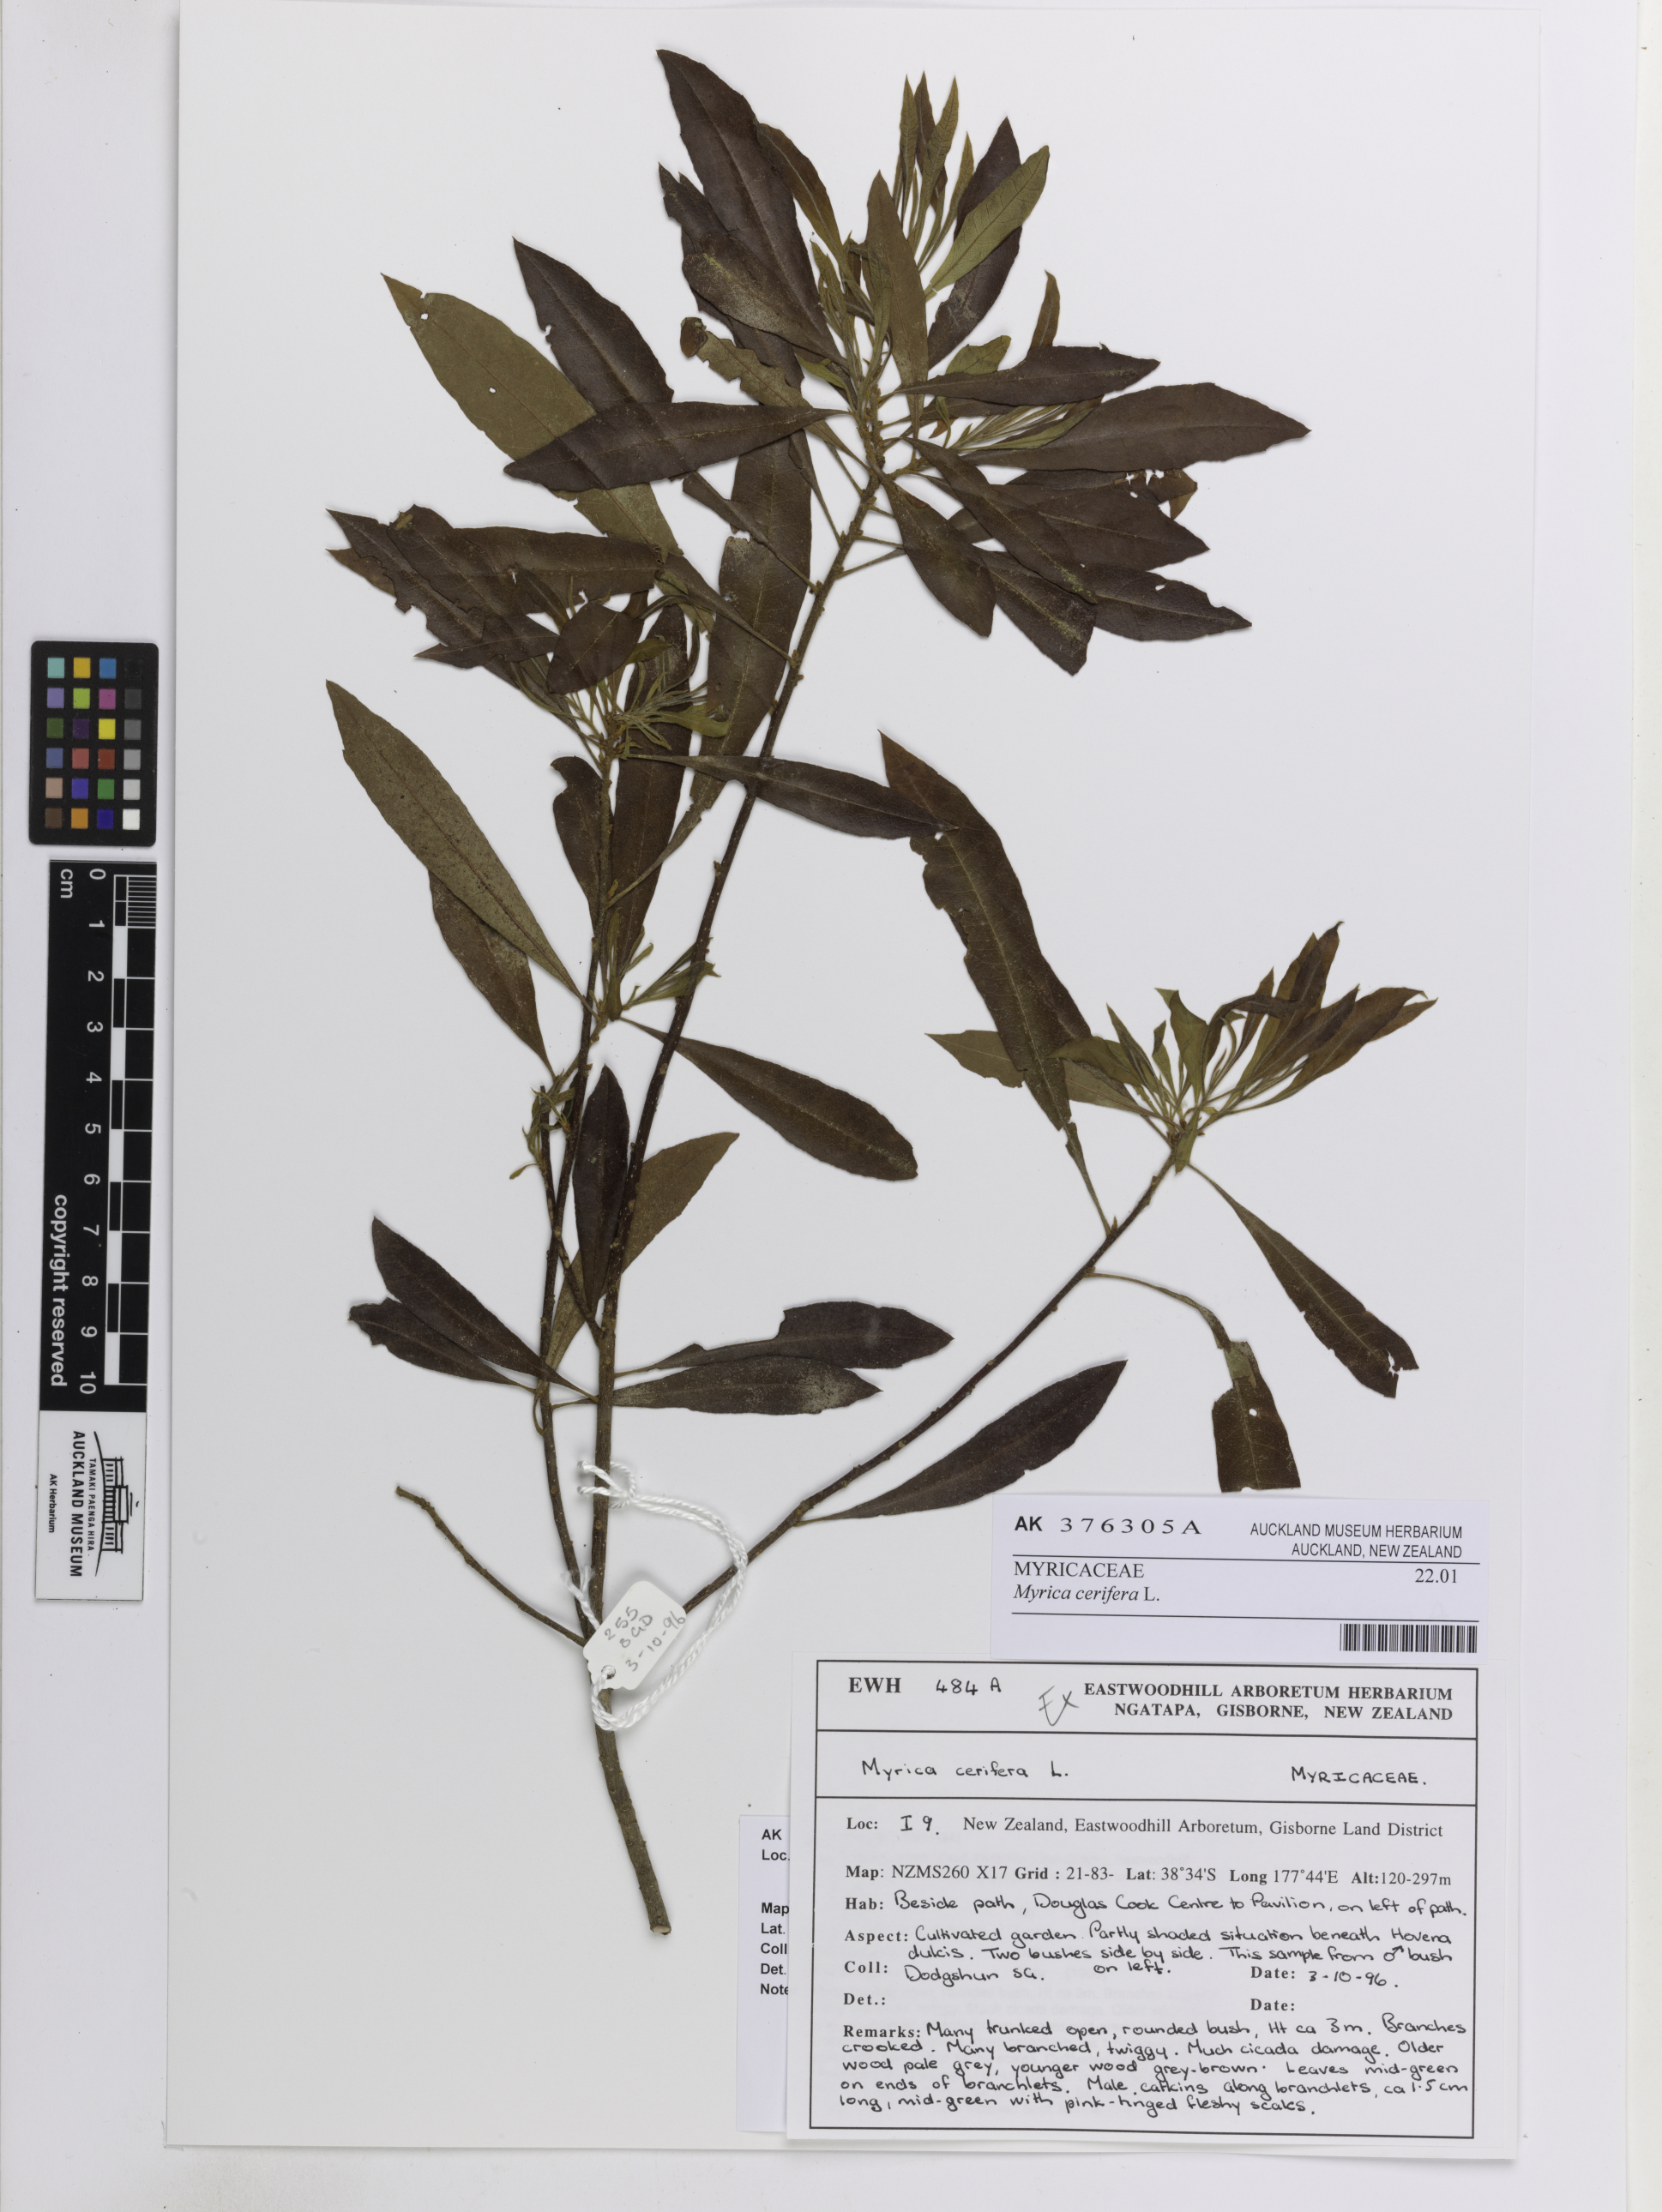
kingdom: Plantae
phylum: Tracheophyta
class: Magnoliopsida
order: Fagales
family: Myricaceae
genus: Morella
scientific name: Morella cerifera
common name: Wax myrtle
